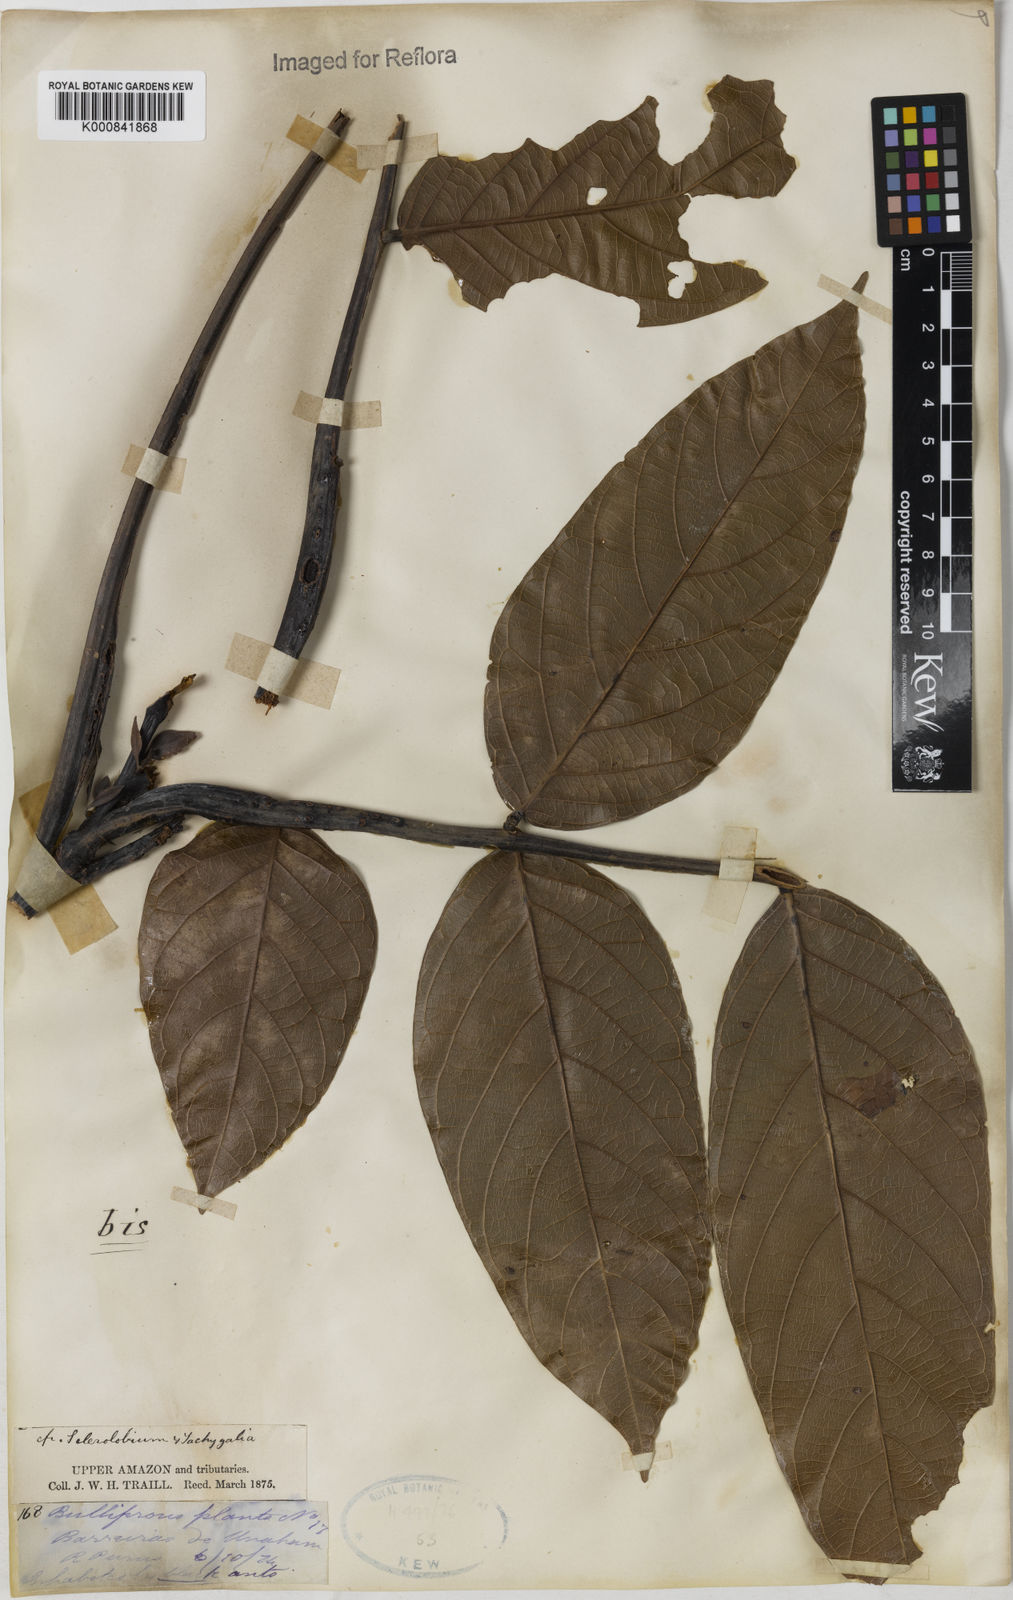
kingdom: Plantae
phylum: Tracheophyta
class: Magnoliopsida
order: Fabales
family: Fabaceae
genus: Tachigali
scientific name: Tachigali
